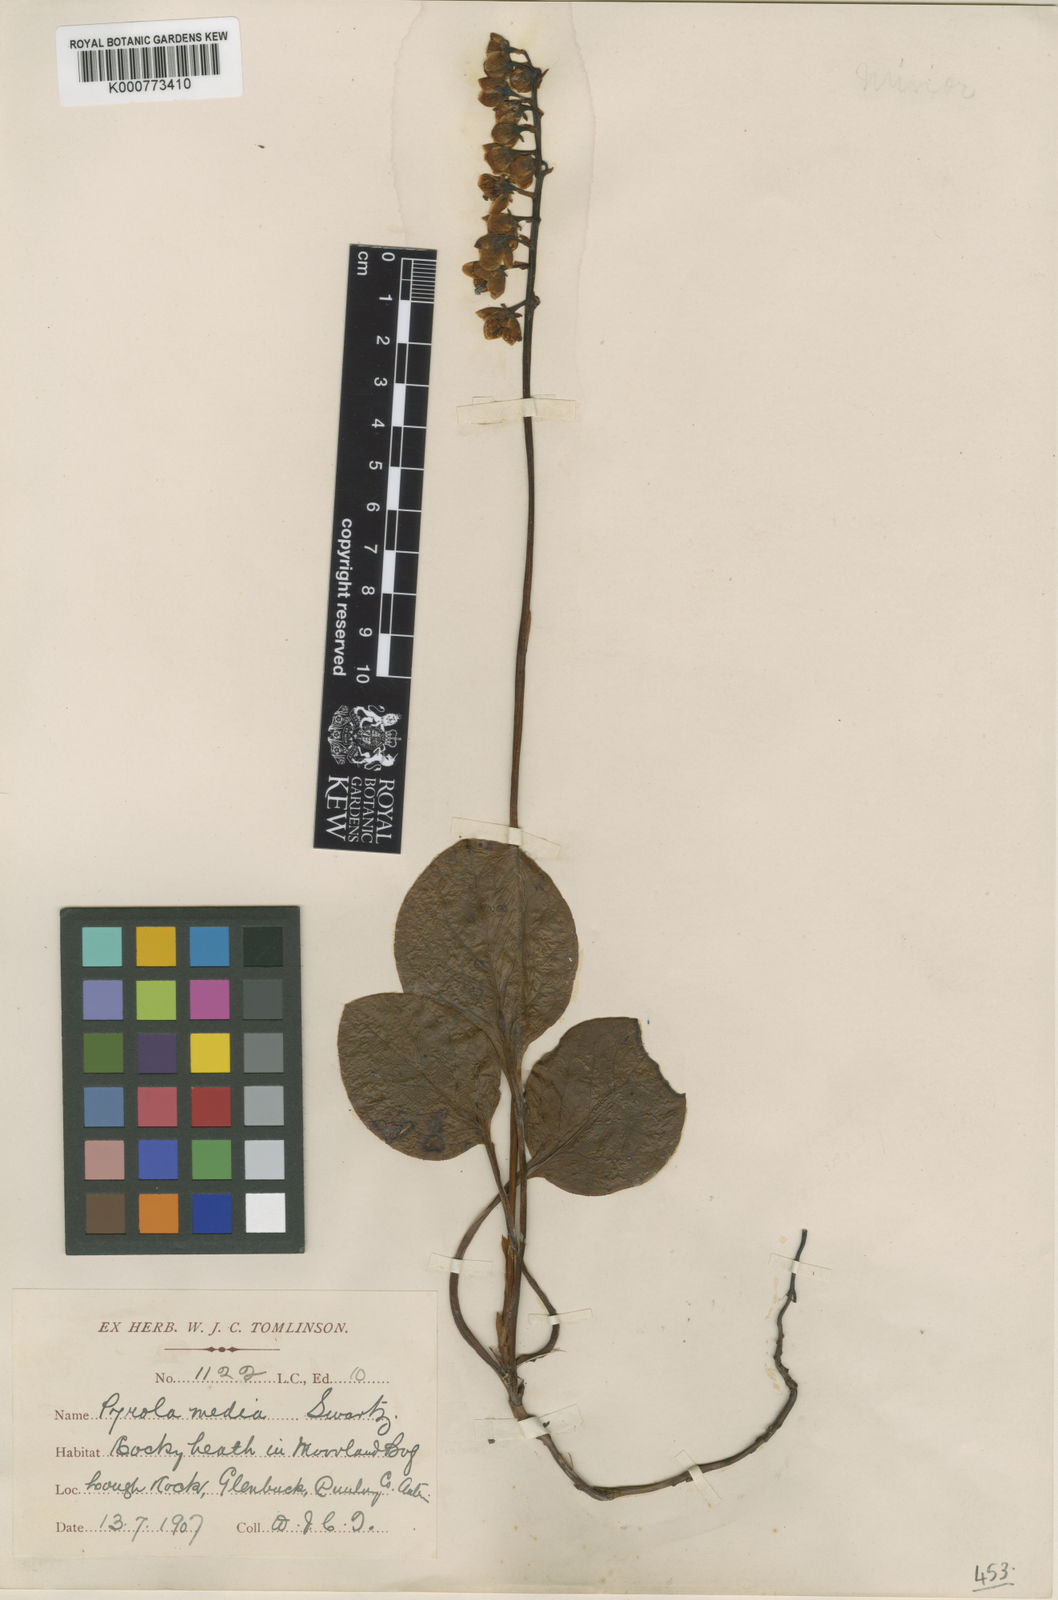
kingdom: Plantae
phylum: Tracheophyta
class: Magnoliopsida
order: Ericales
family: Ericaceae
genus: Pyrola
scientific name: Pyrola media
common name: Intermediate wintergreen
